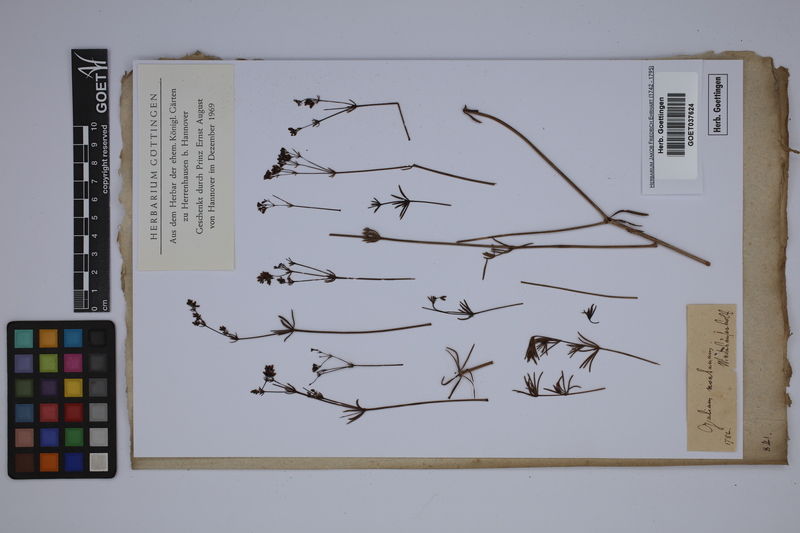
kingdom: Plantae
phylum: Tracheophyta
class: Magnoliopsida
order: Gentianales
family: Rubiaceae
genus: Galium
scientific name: Galium glaucum
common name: Waxy bedstraw
